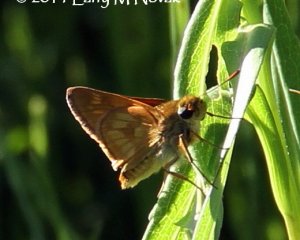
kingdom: Animalia
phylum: Arthropoda
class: Insecta
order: Lepidoptera
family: Hesperiidae
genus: Polites
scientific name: Polites
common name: Long Dash Skipper
